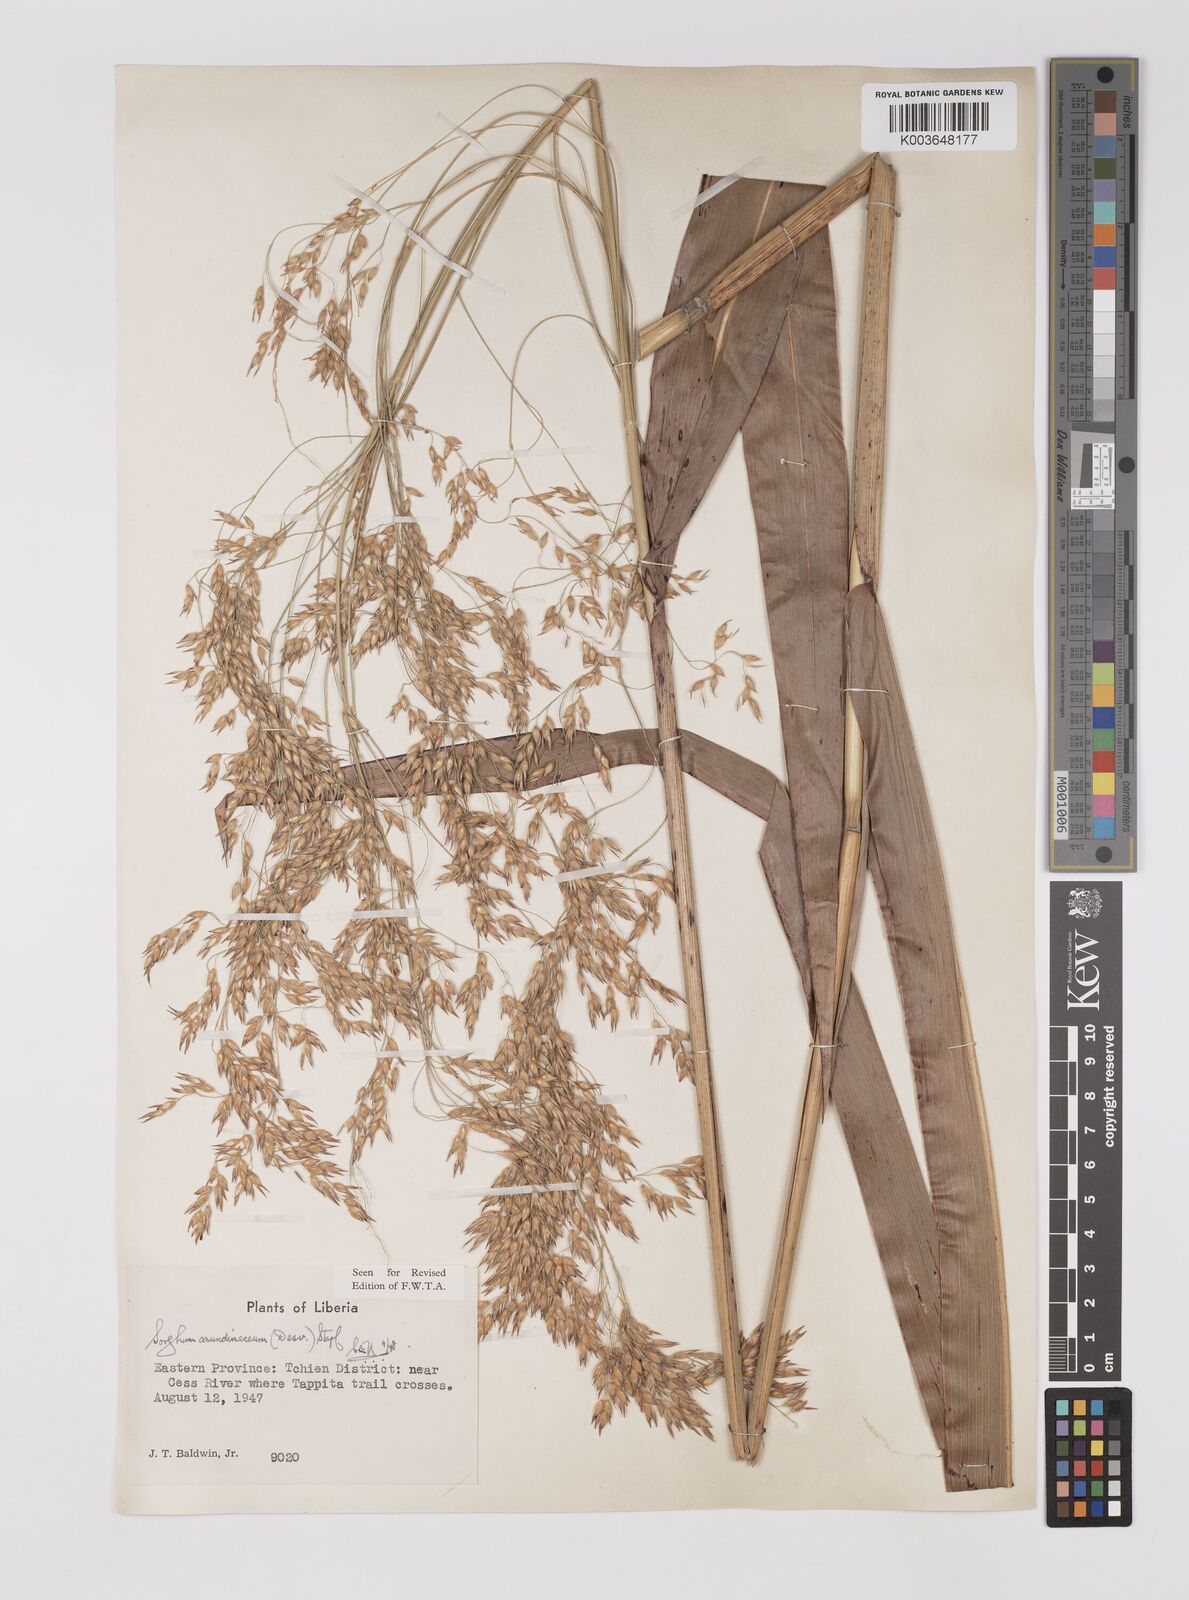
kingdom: Plantae
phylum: Tracheophyta
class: Liliopsida
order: Poales
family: Poaceae
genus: Sorghum
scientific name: Sorghum arundinaceum
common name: Sorghum
